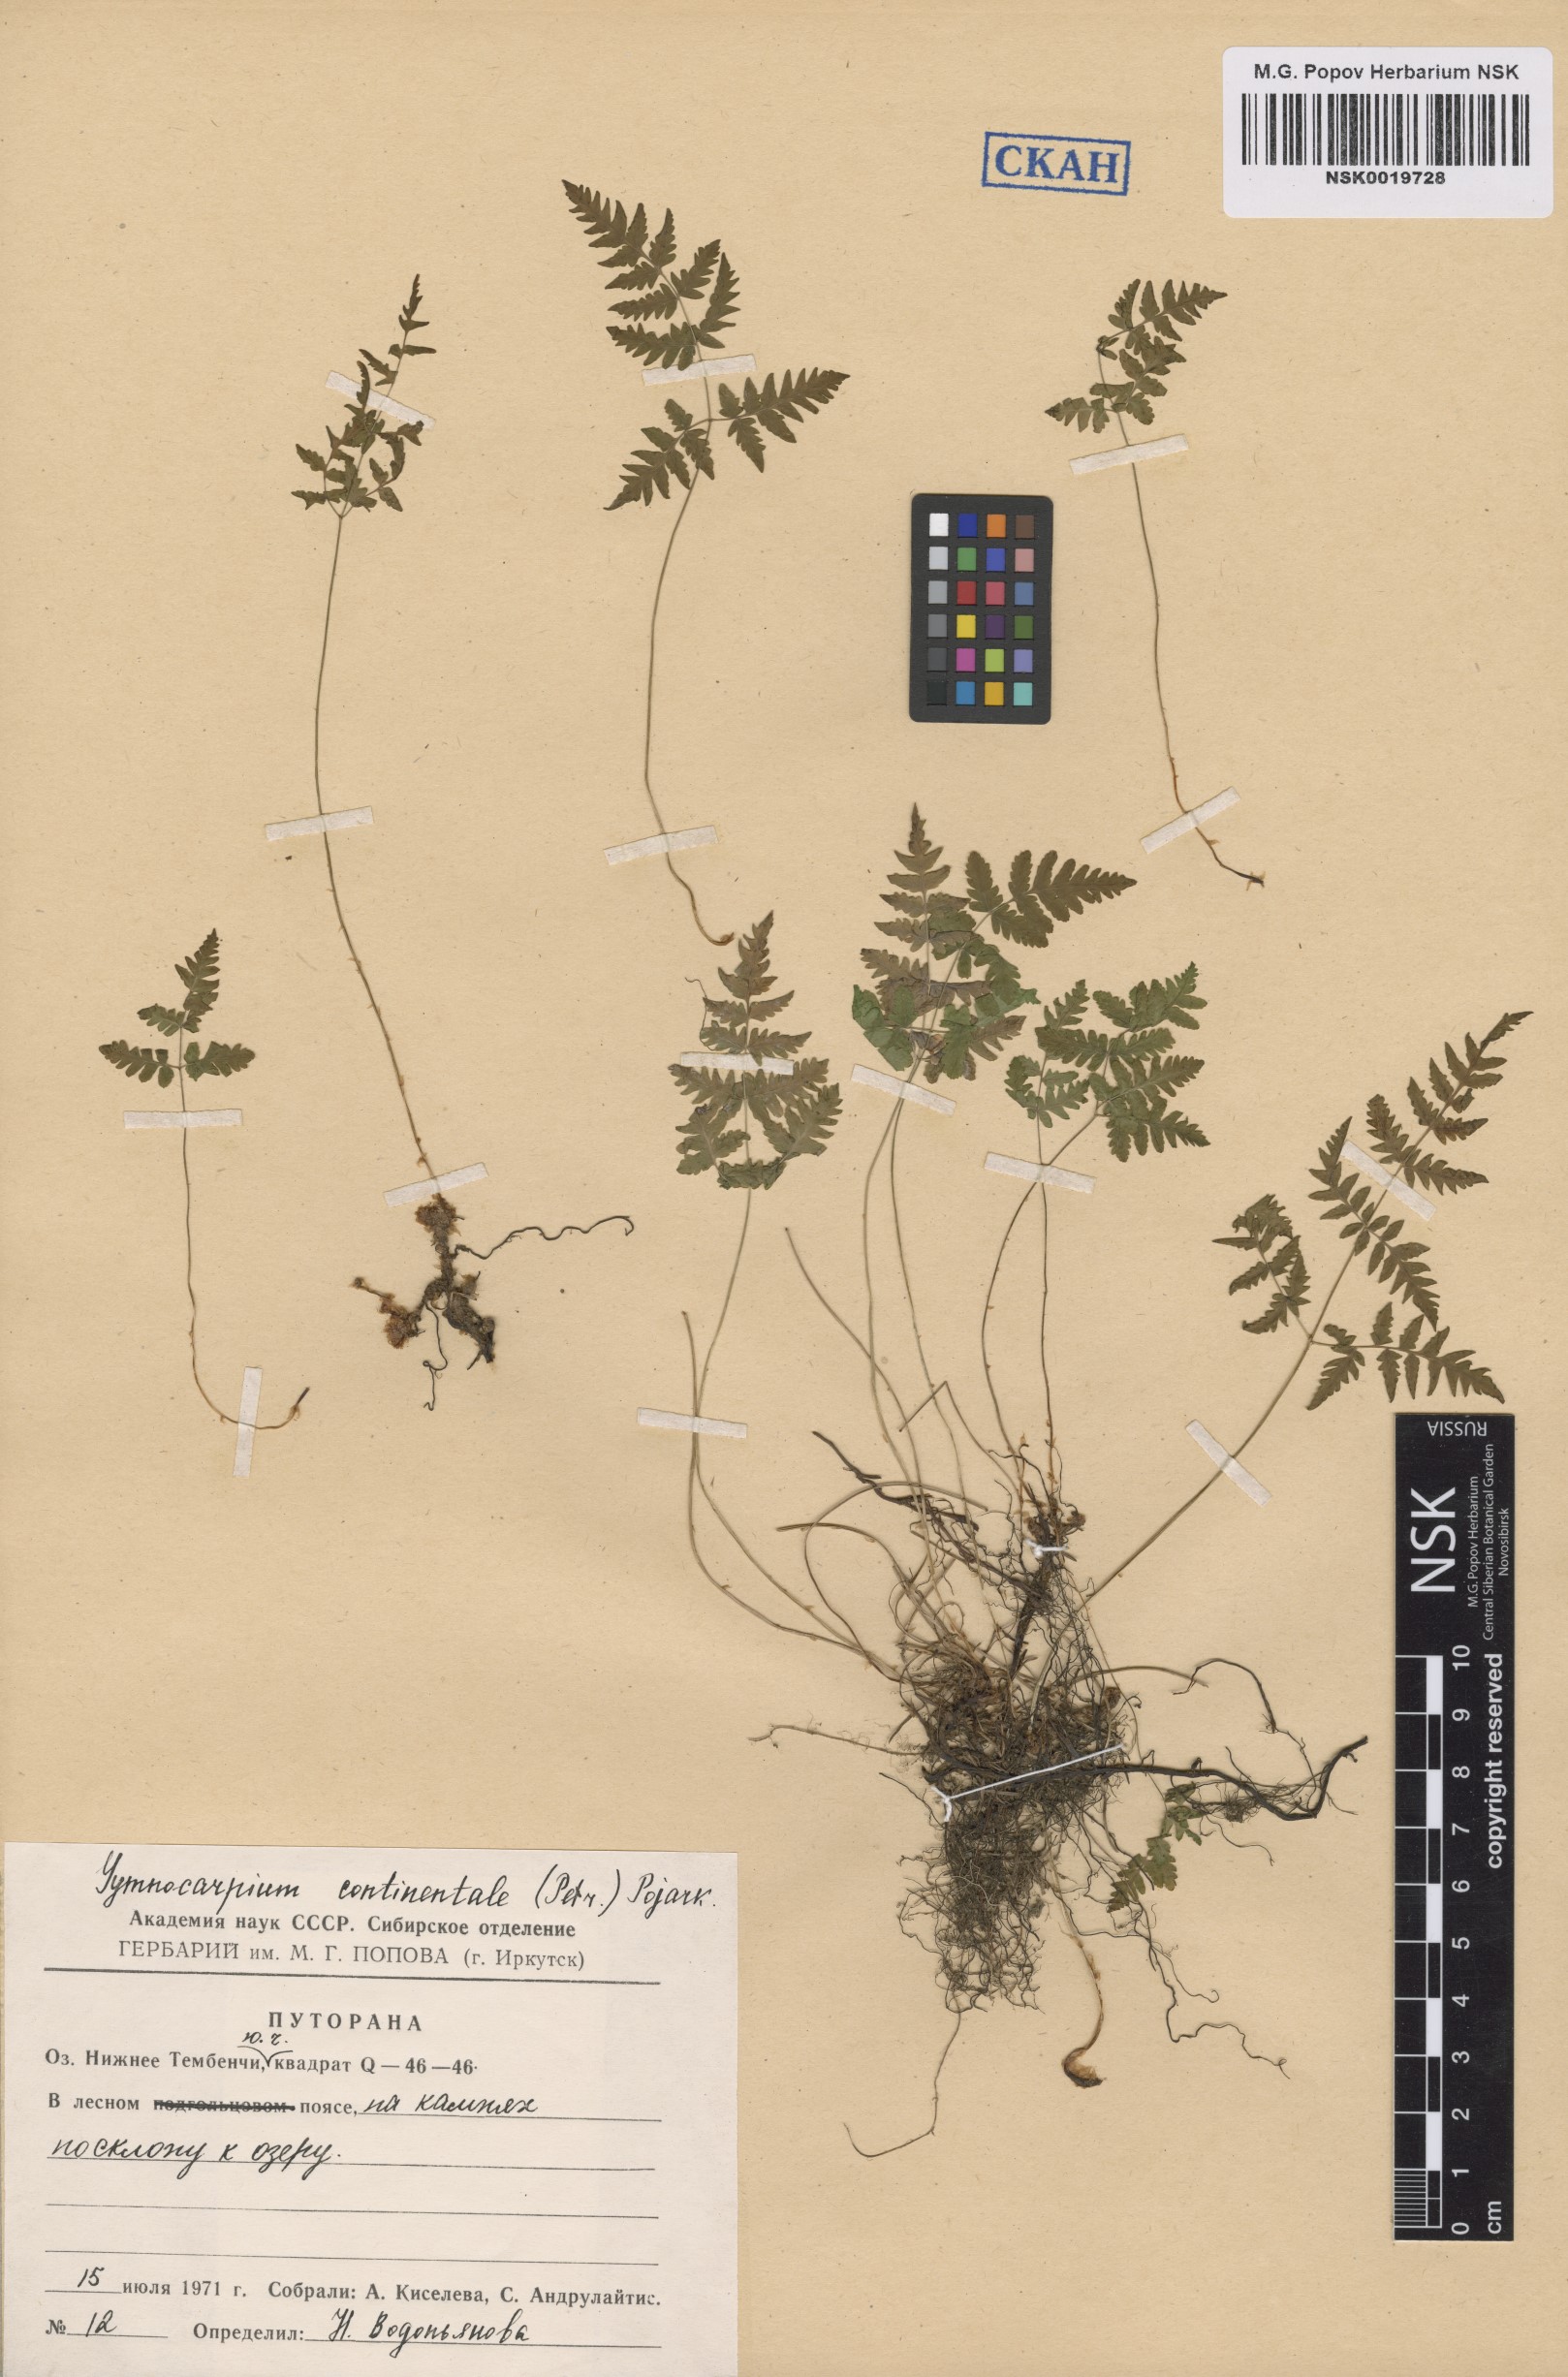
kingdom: Plantae
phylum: Tracheophyta
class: Polypodiopsida
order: Polypodiales
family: Cystopteridaceae
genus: Gymnocarpium
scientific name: Gymnocarpium continentale
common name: Asian oak fern
